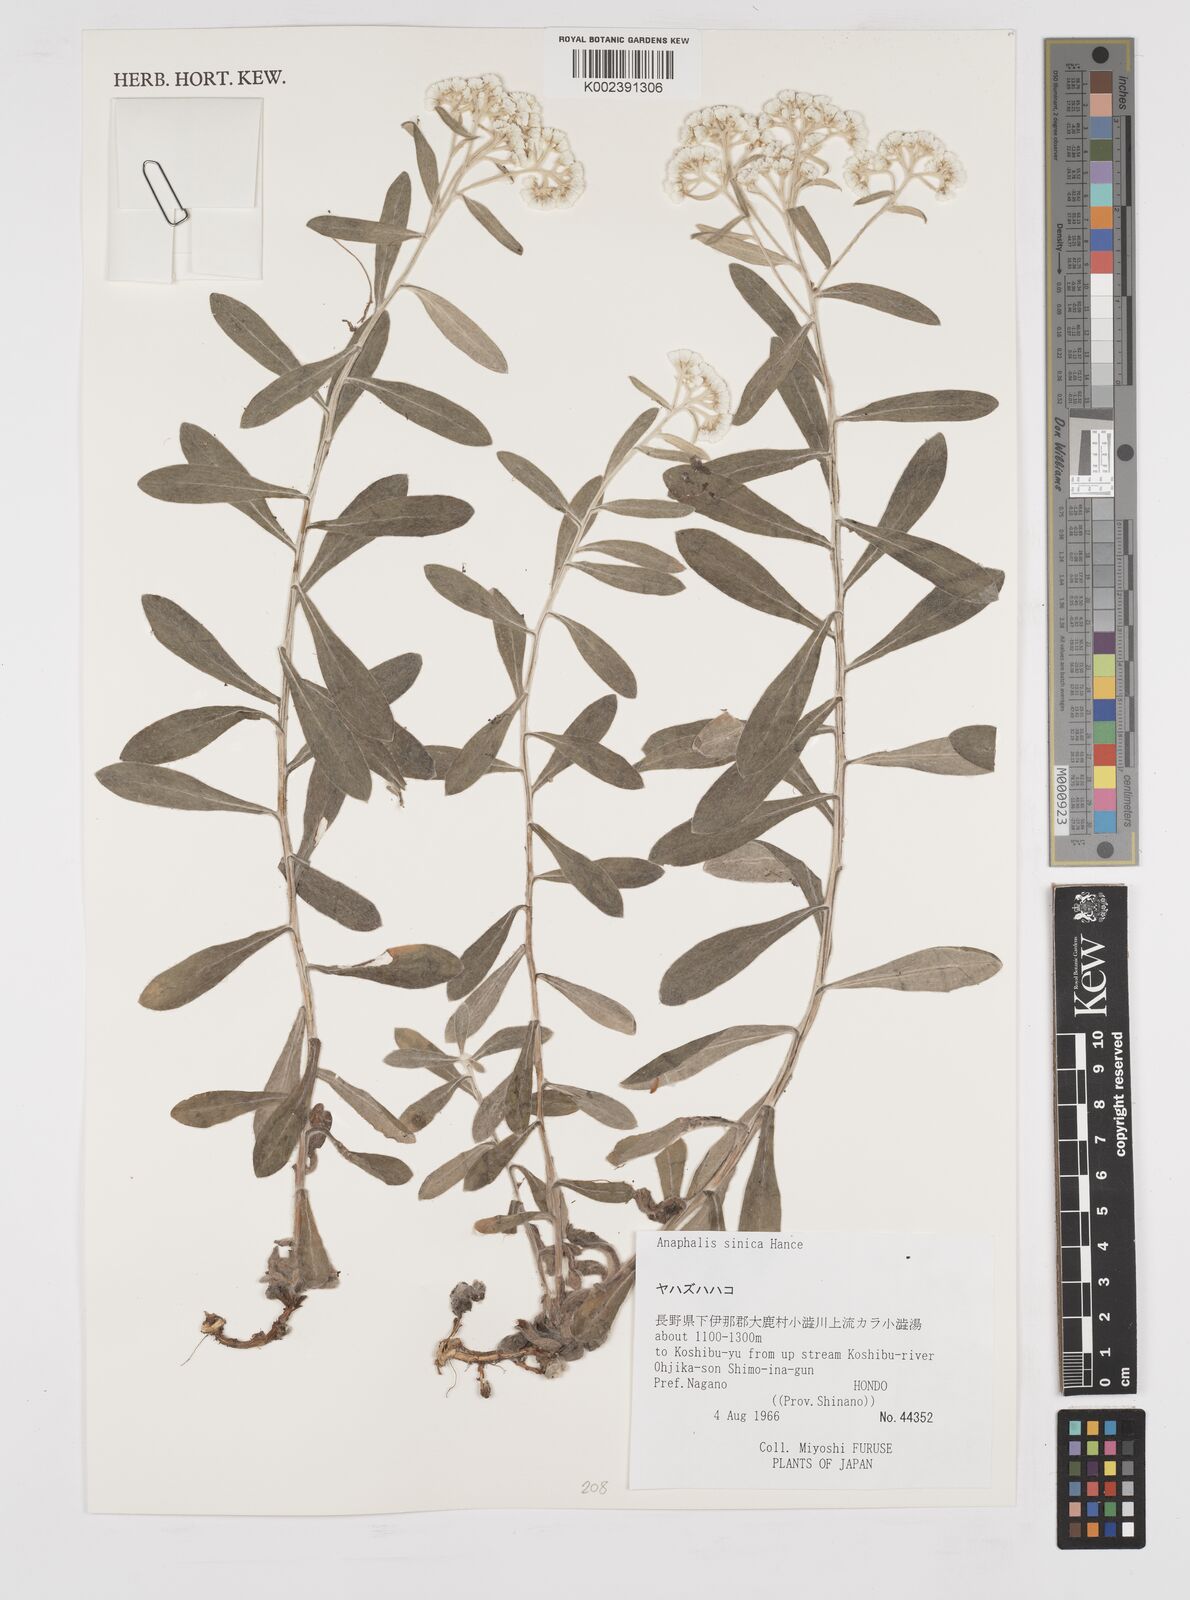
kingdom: Plantae
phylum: Tracheophyta
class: Magnoliopsida
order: Asterales
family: Asteraceae
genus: Anaphalis
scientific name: Anaphalis sinica
